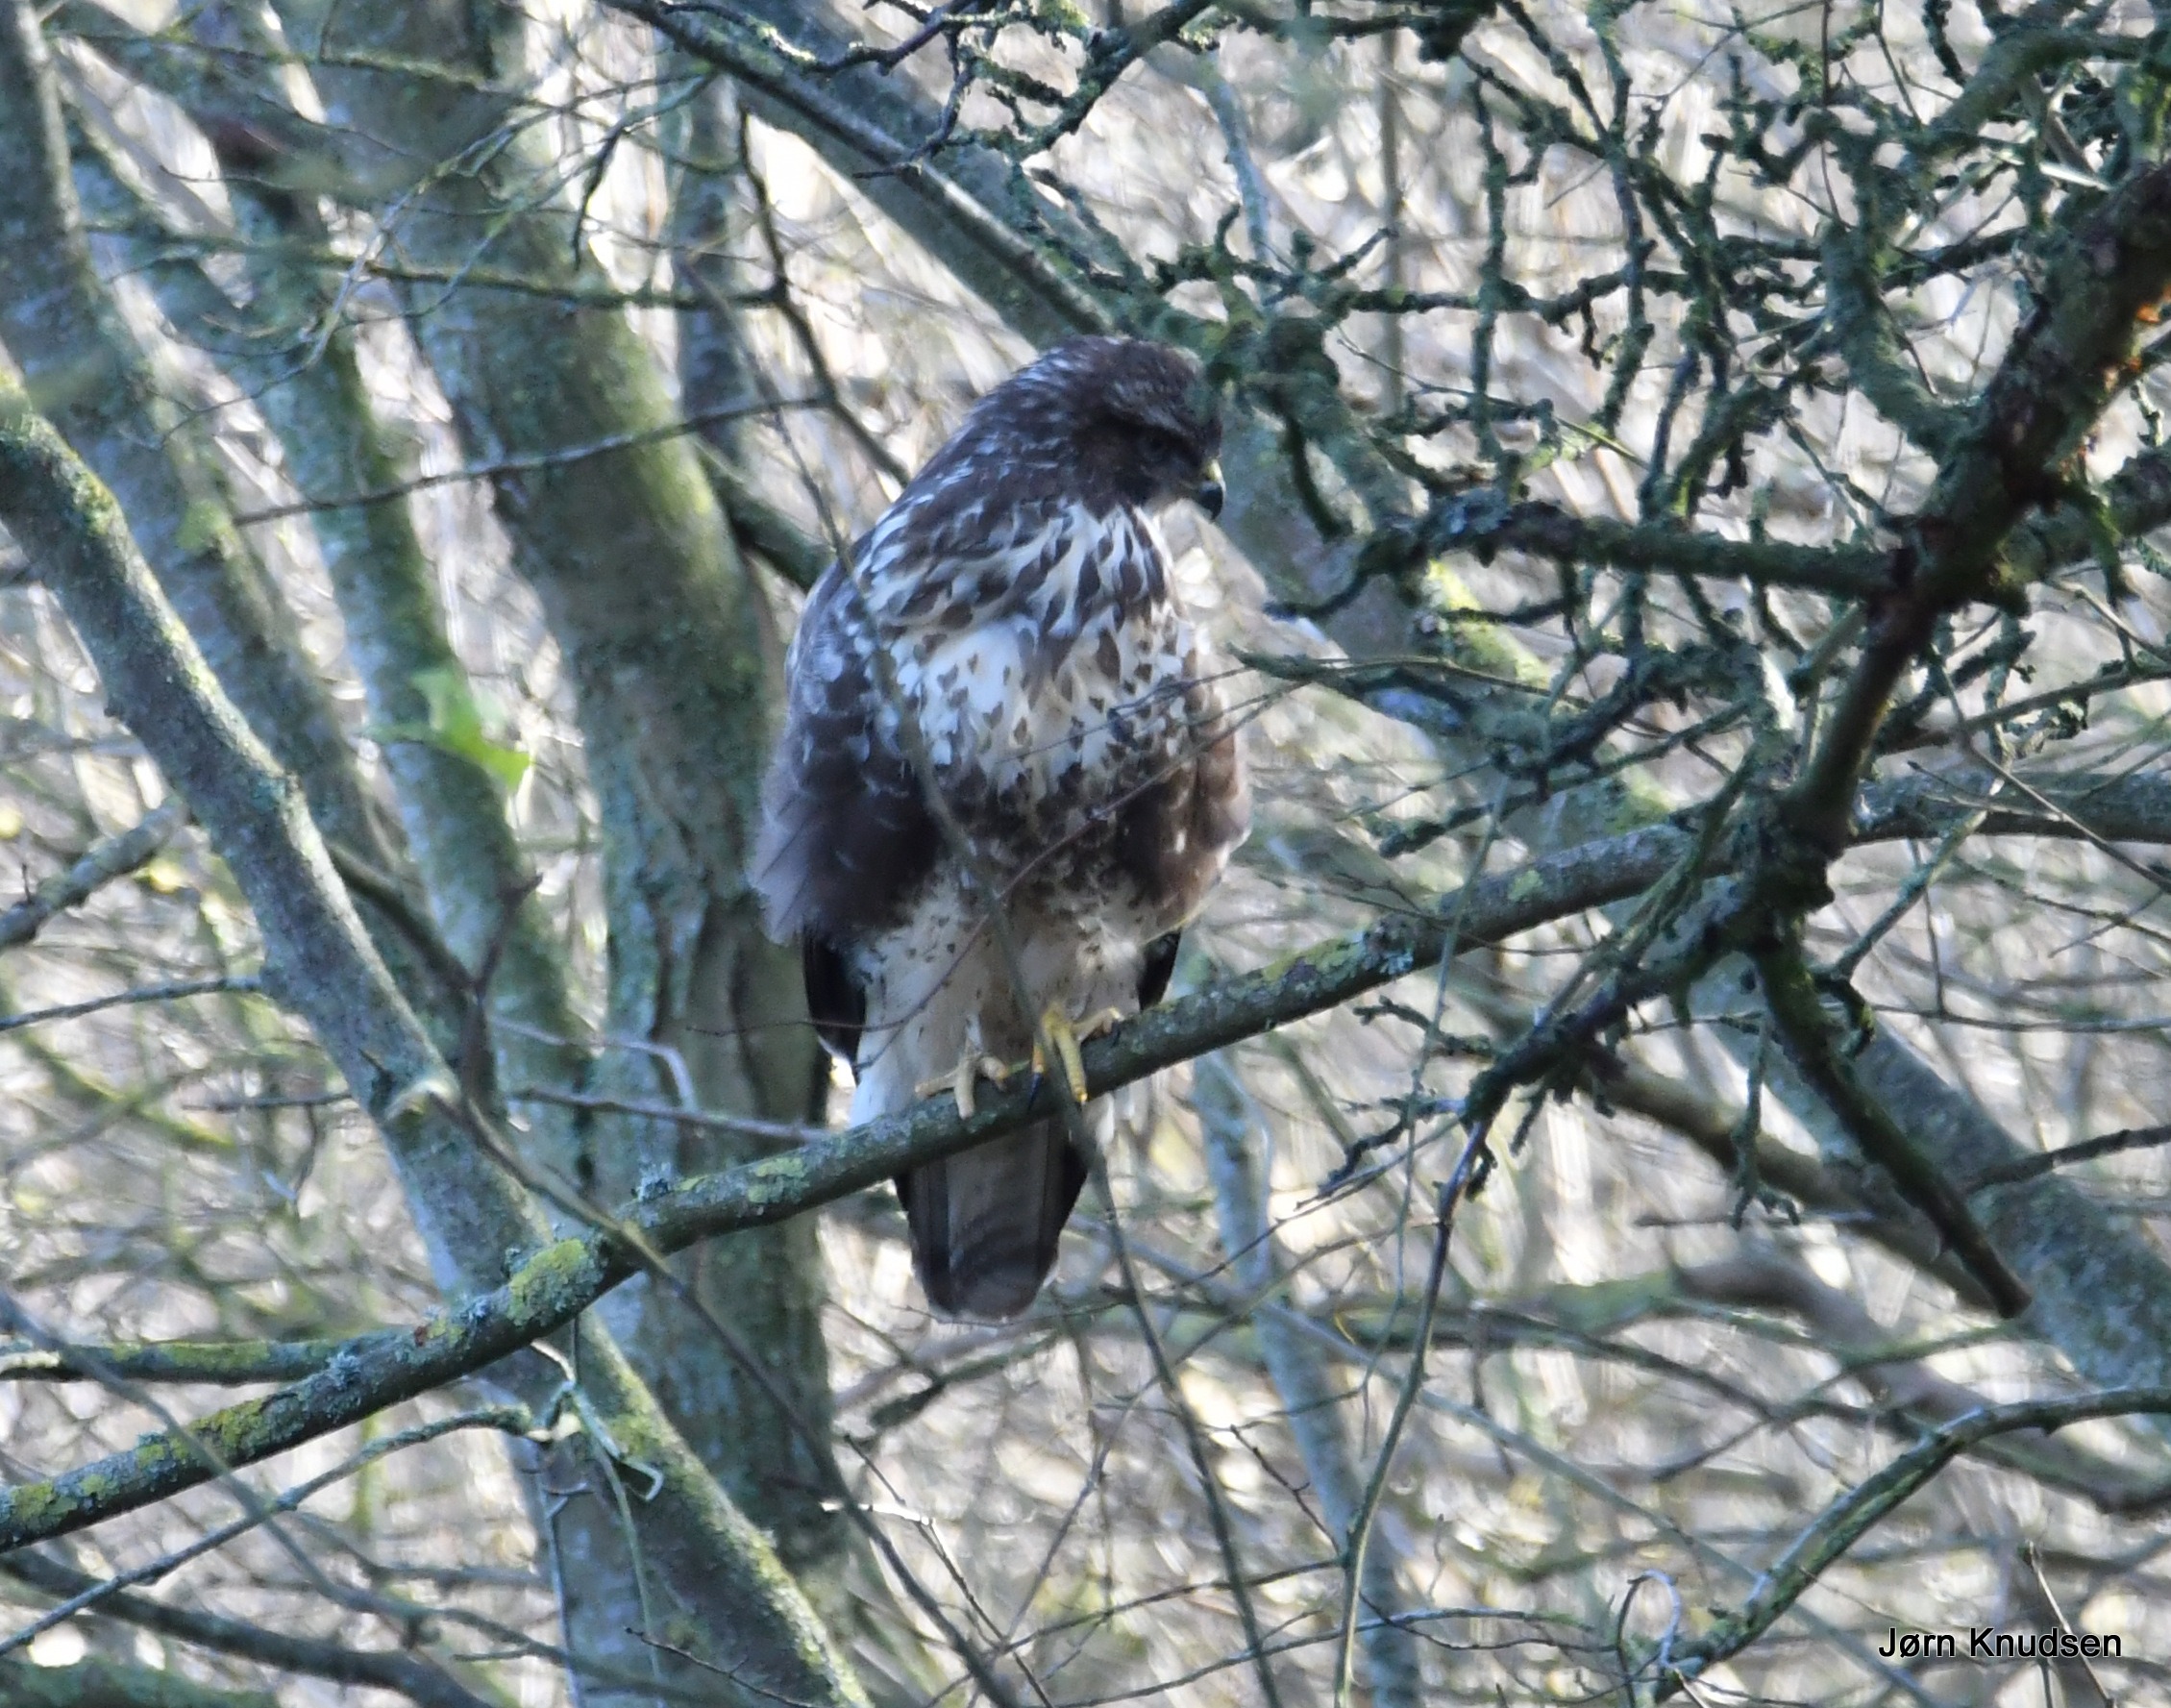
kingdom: Animalia
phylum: Chordata
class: Aves
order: Accipitriformes
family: Accipitridae
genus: Buteo
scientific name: Buteo buteo
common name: Musvåge
